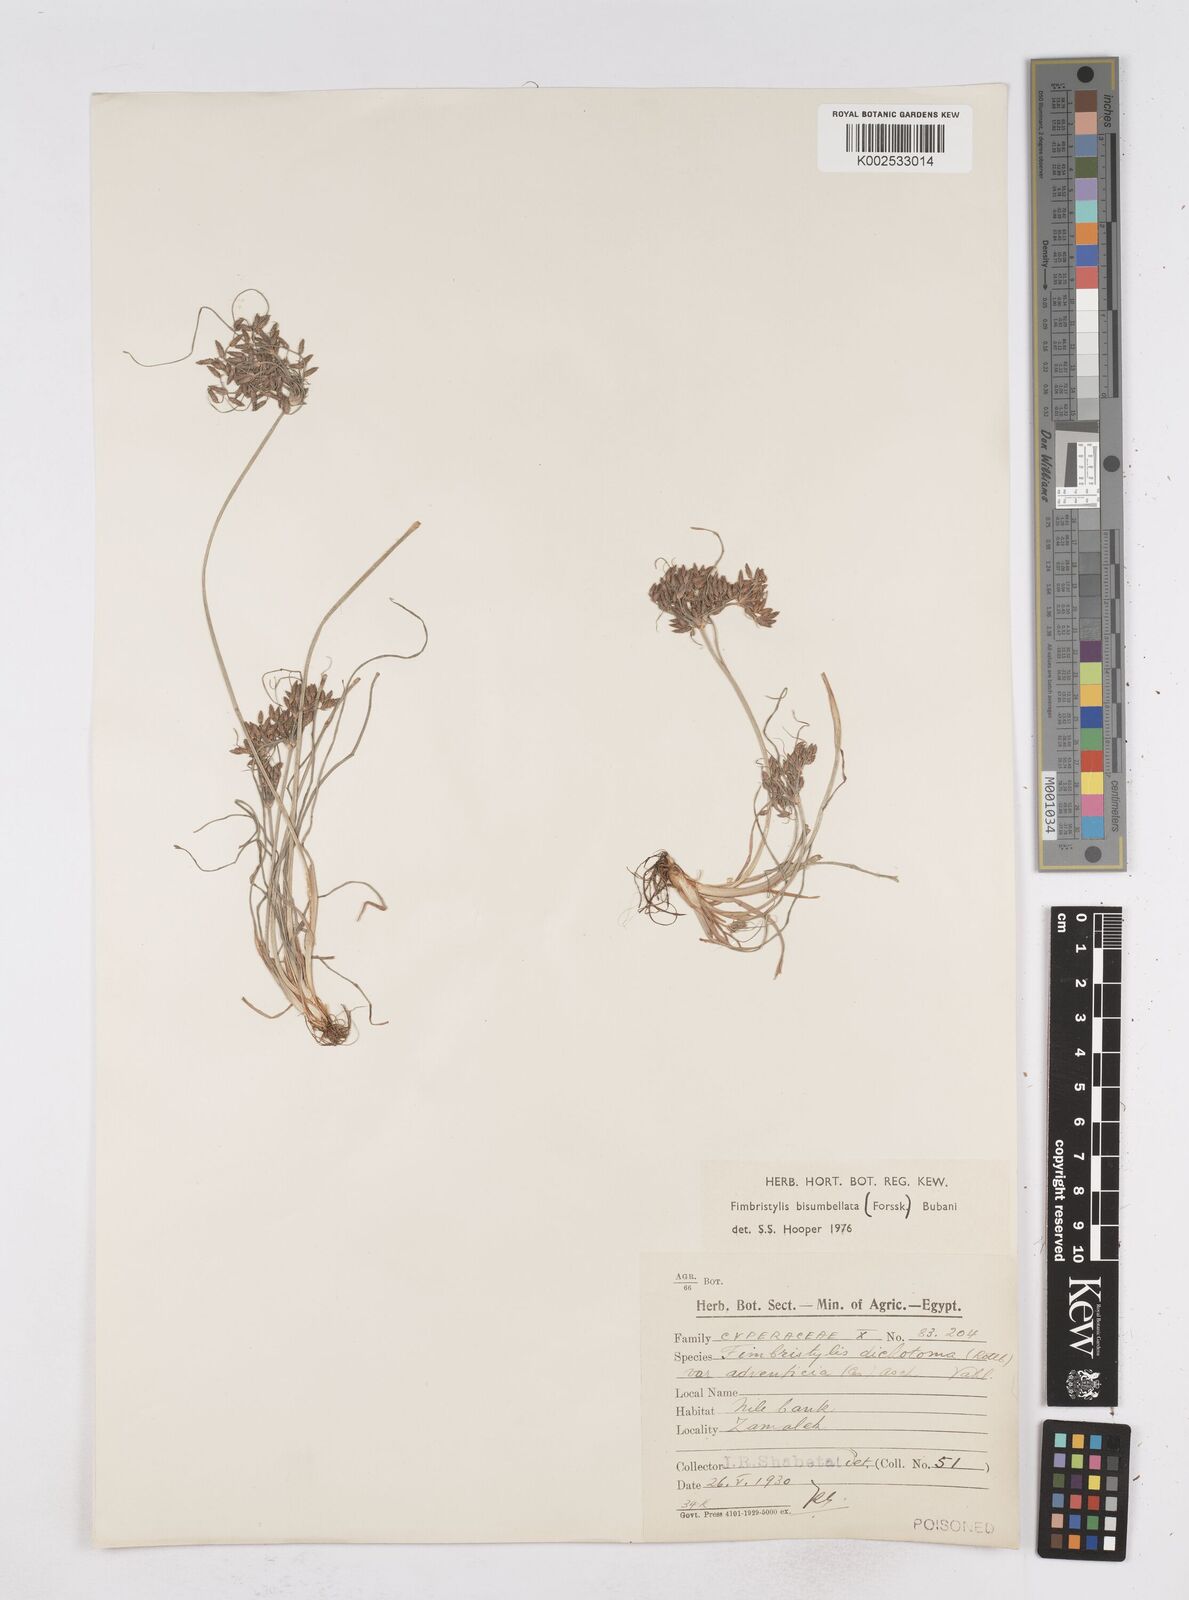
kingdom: Plantae
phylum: Tracheophyta
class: Liliopsida
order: Poales
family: Cyperaceae
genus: Fimbristylis
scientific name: Fimbristylis bisumbellata
